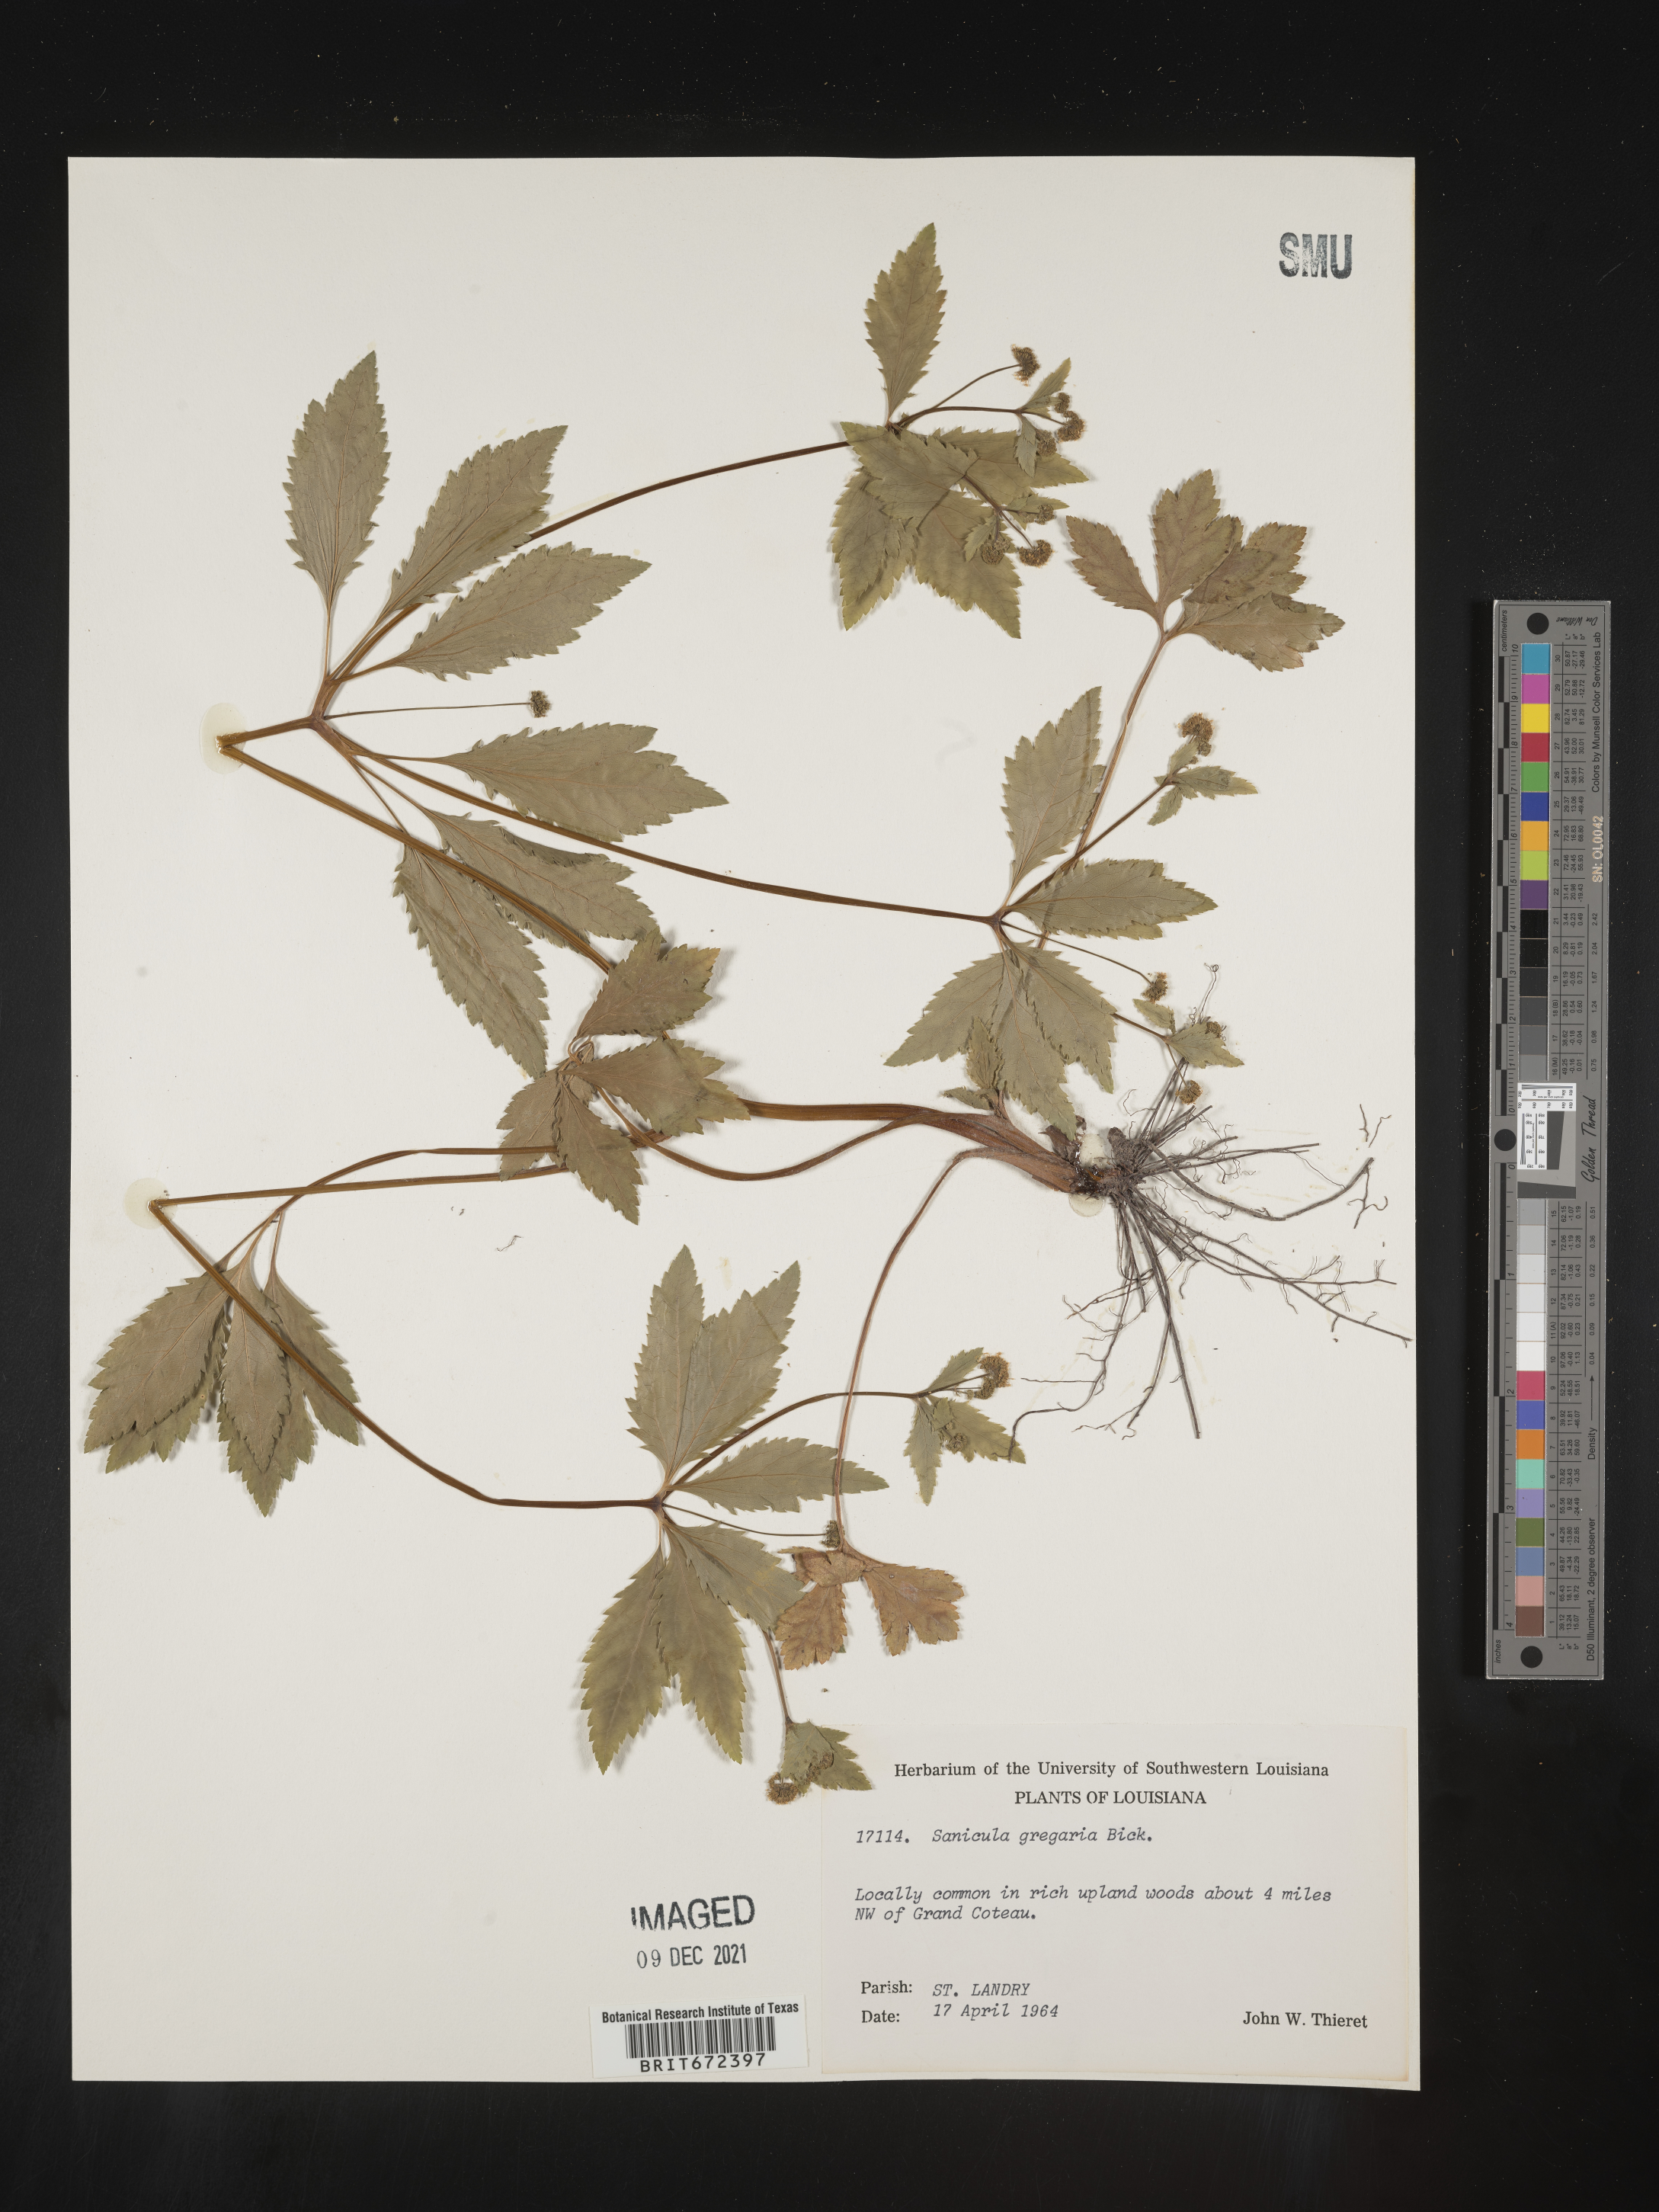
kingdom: Plantae
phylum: Tracheophyta
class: Magnoliopsida
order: Apiales
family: Apiaceae
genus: Sanicula
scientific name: Sanicula odorata
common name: Cluster sanicle
